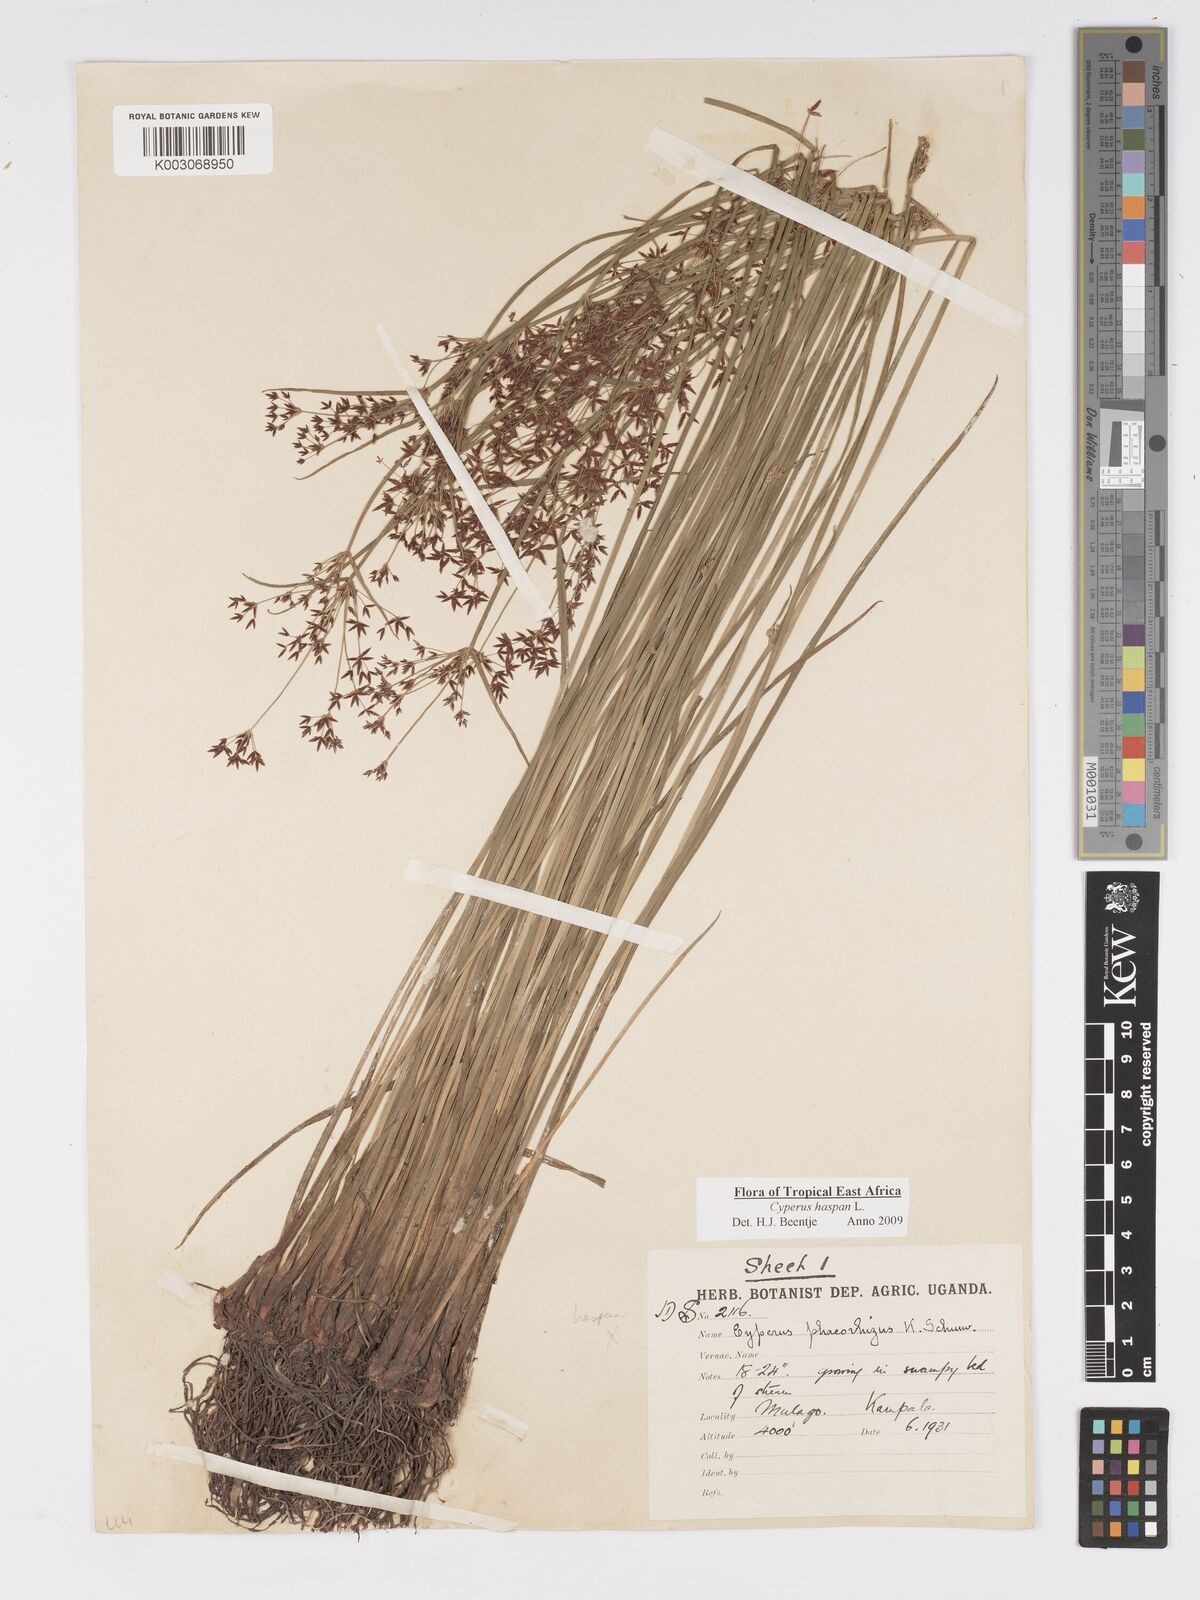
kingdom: Plantae
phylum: Tracheophyta
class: Liliopsida
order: Poales
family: Cyperaceae
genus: Cyperus
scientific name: Cyperus haspan
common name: Haspan flatsedge
